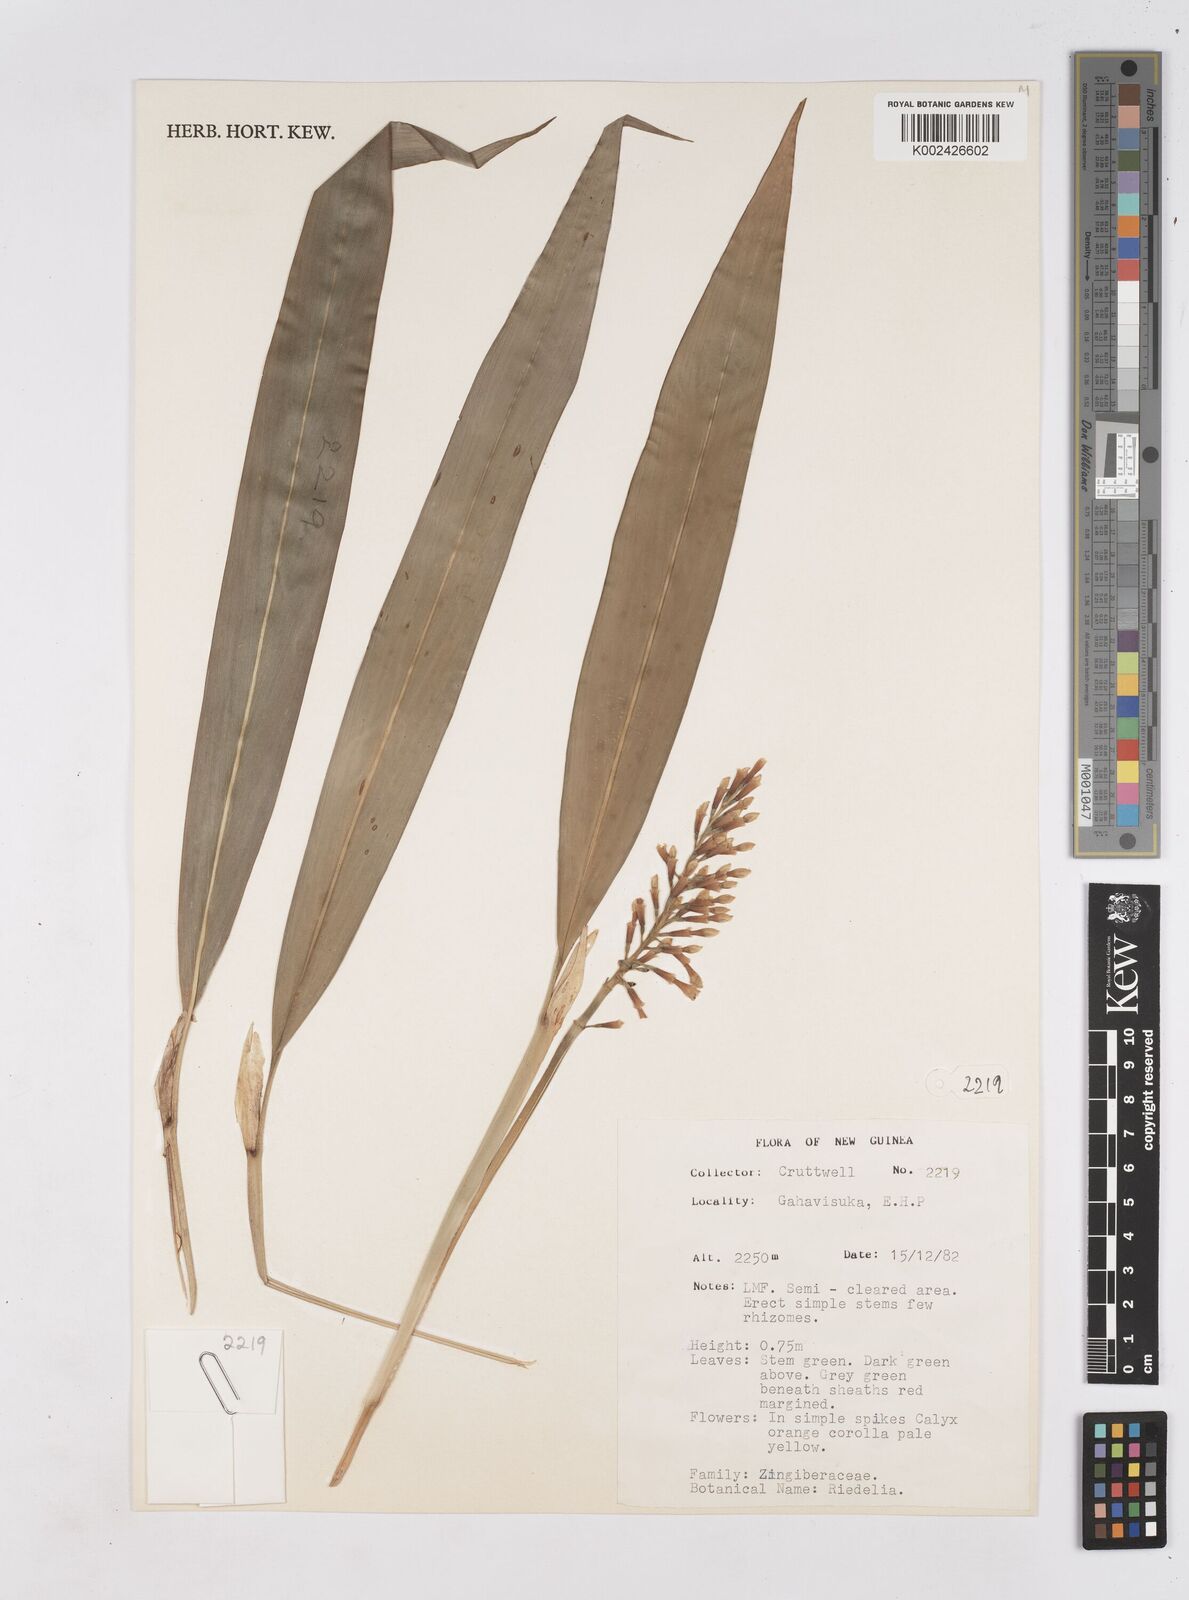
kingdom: Plantae
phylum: Tracheophyta
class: Liliopsida
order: Zingiberales
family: Zingiberaceae
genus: Riedelia
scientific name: Riedelia
